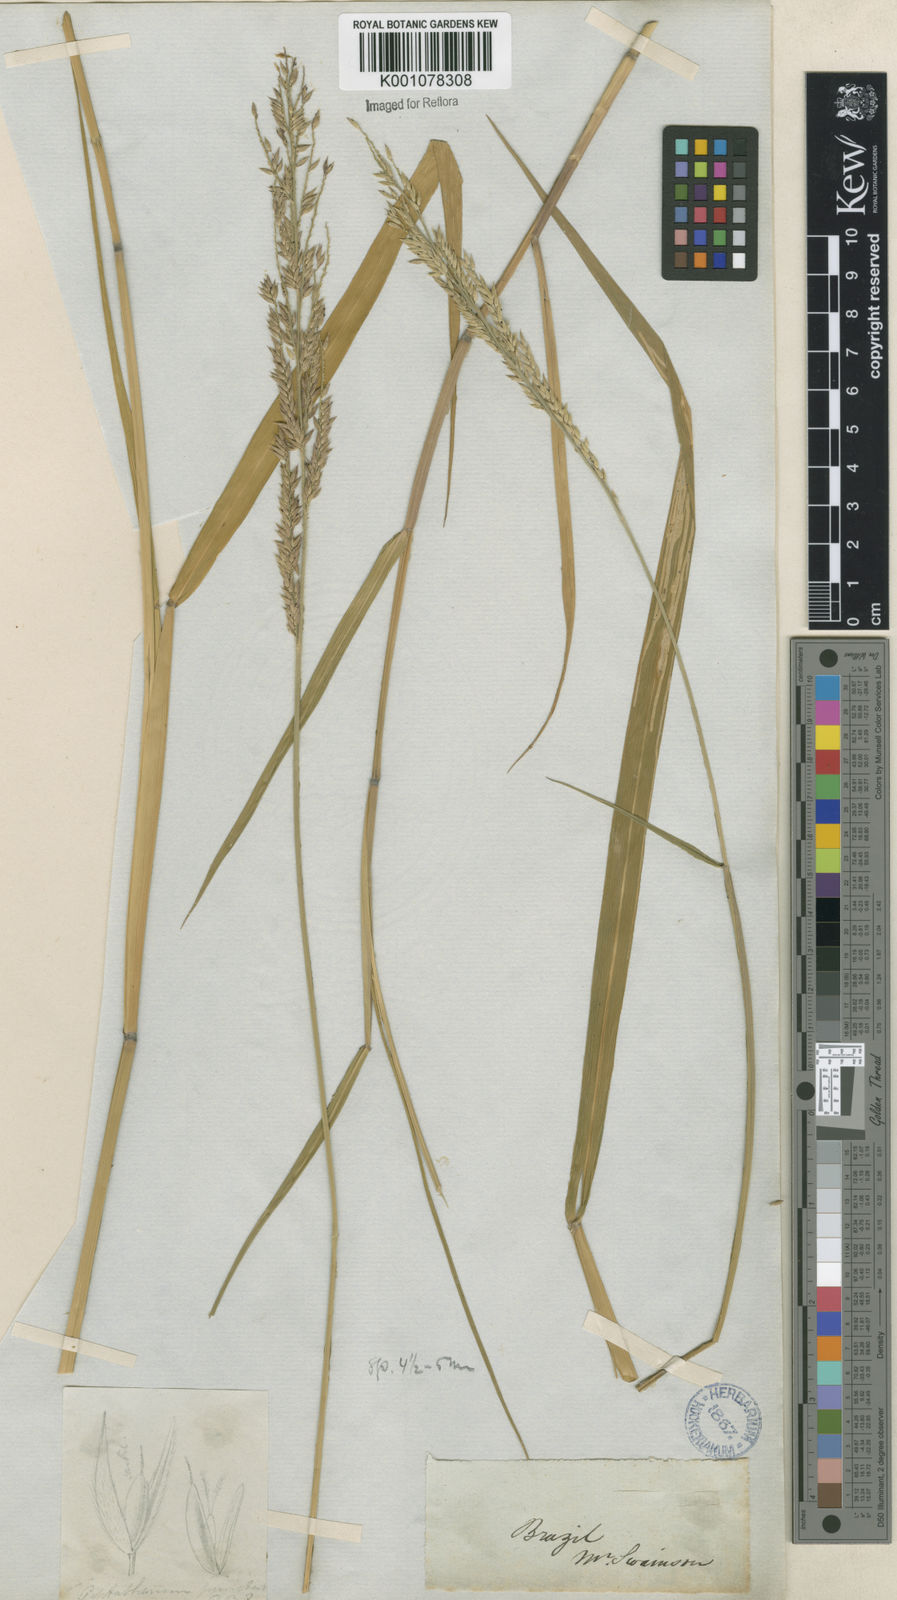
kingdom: Plantae
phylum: Tracheophyta
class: Liliopsida
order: Poales
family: Poaceae
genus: Eriochloa
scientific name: Eriochloa punctata
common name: Louisiana cupgrass
